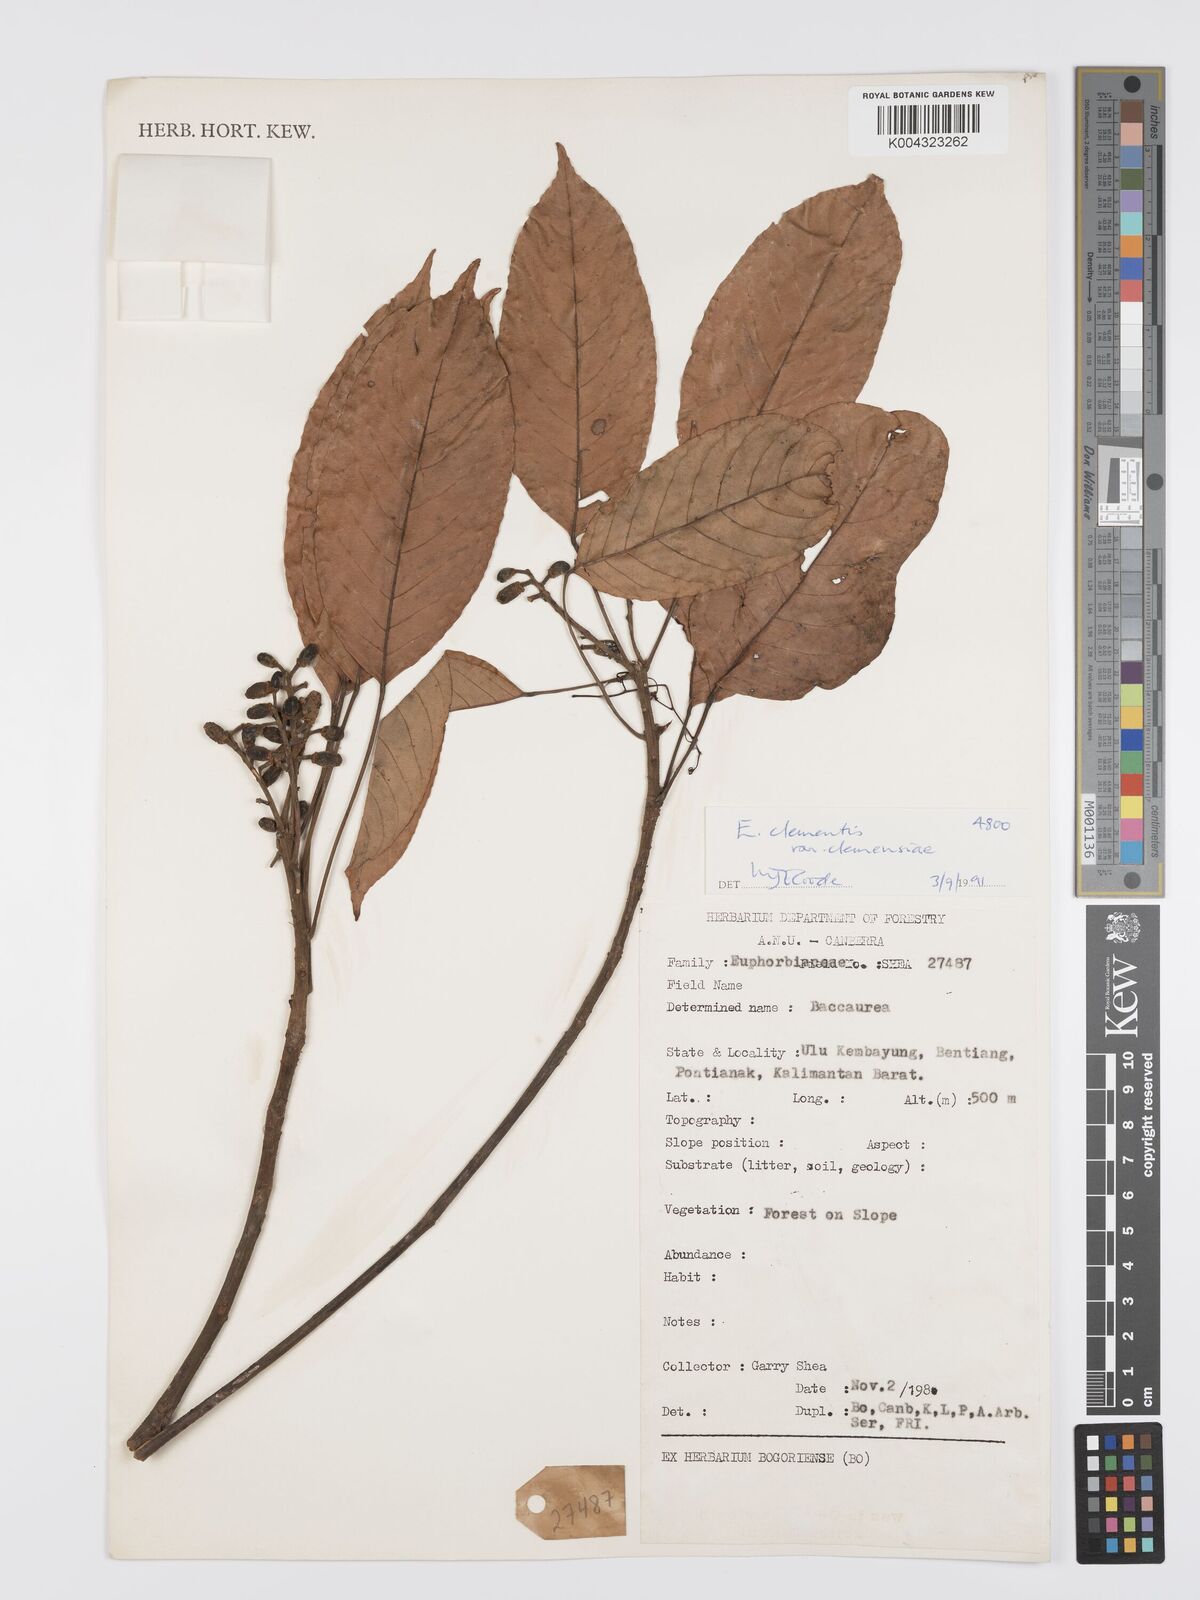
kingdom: Plantae
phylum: Tracheophyta
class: Magnoliopsida
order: Oxalidales
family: Elaeocarpaceae
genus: Elaeocarpus
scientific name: Elaeocarpus clementis
